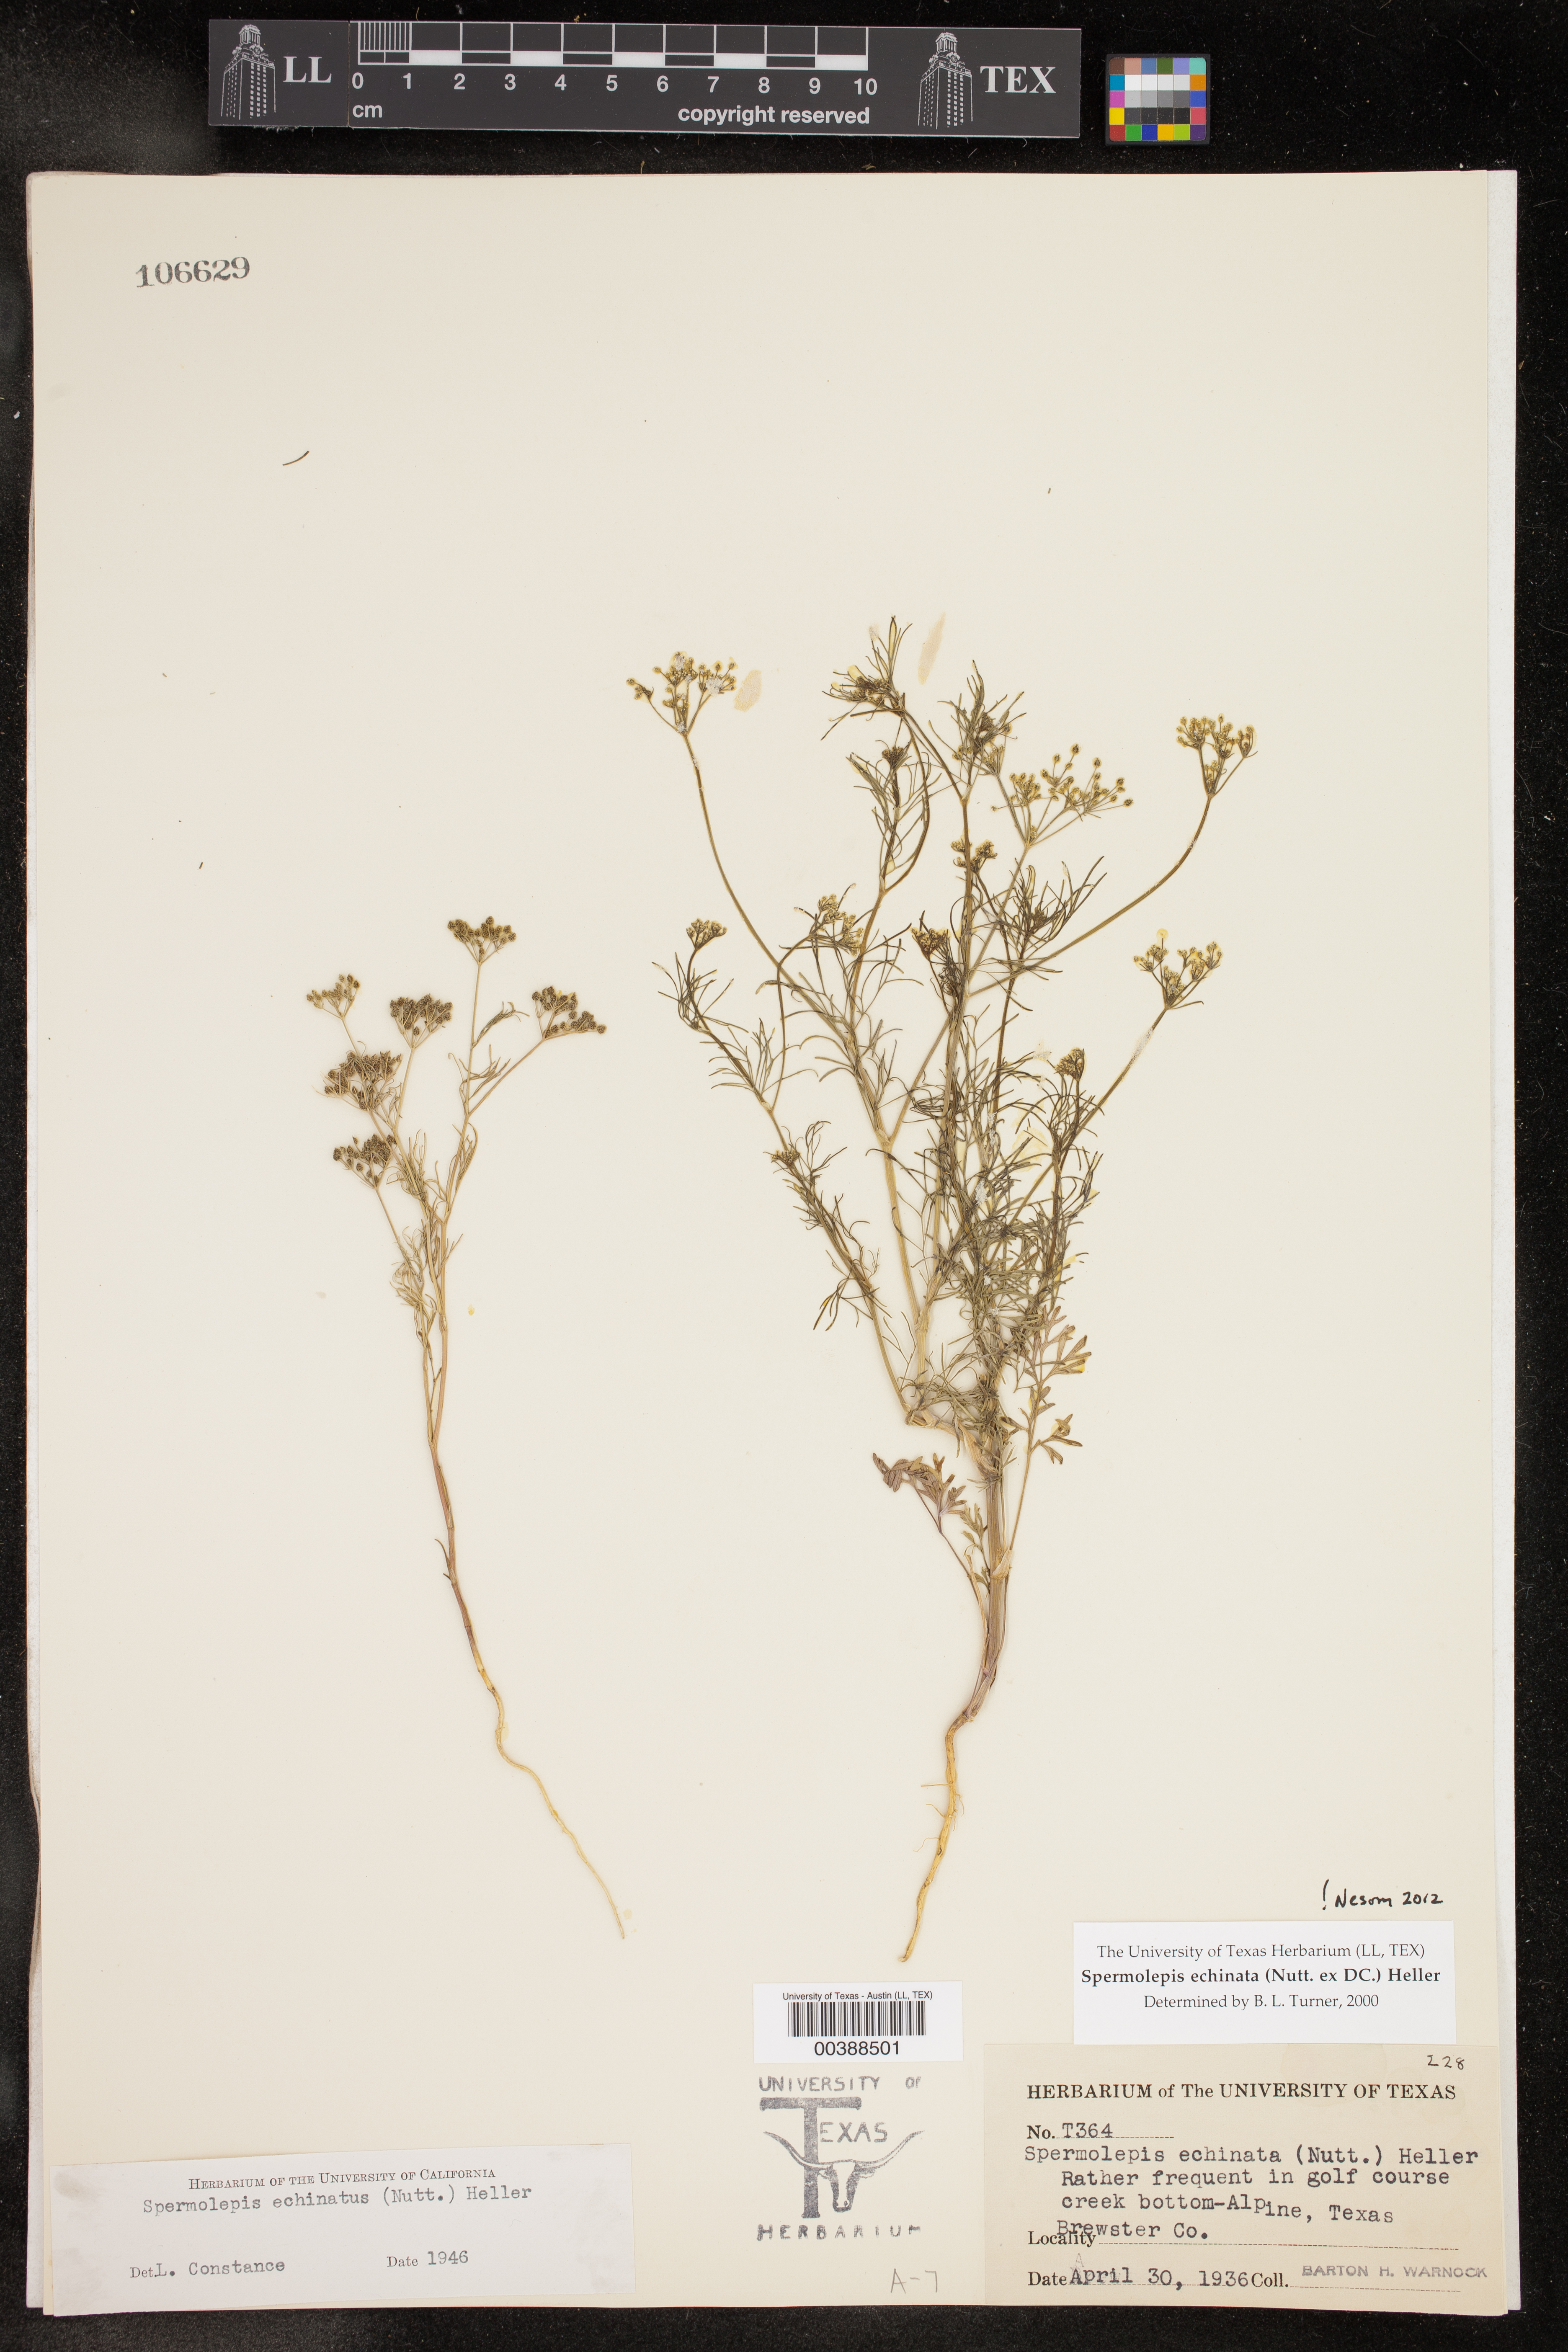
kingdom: Plantae
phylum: Tracheophyta
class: Magnoliopsida
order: Apiales
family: Apiaceae
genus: Spermolepis
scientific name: Spermolepis echinata
